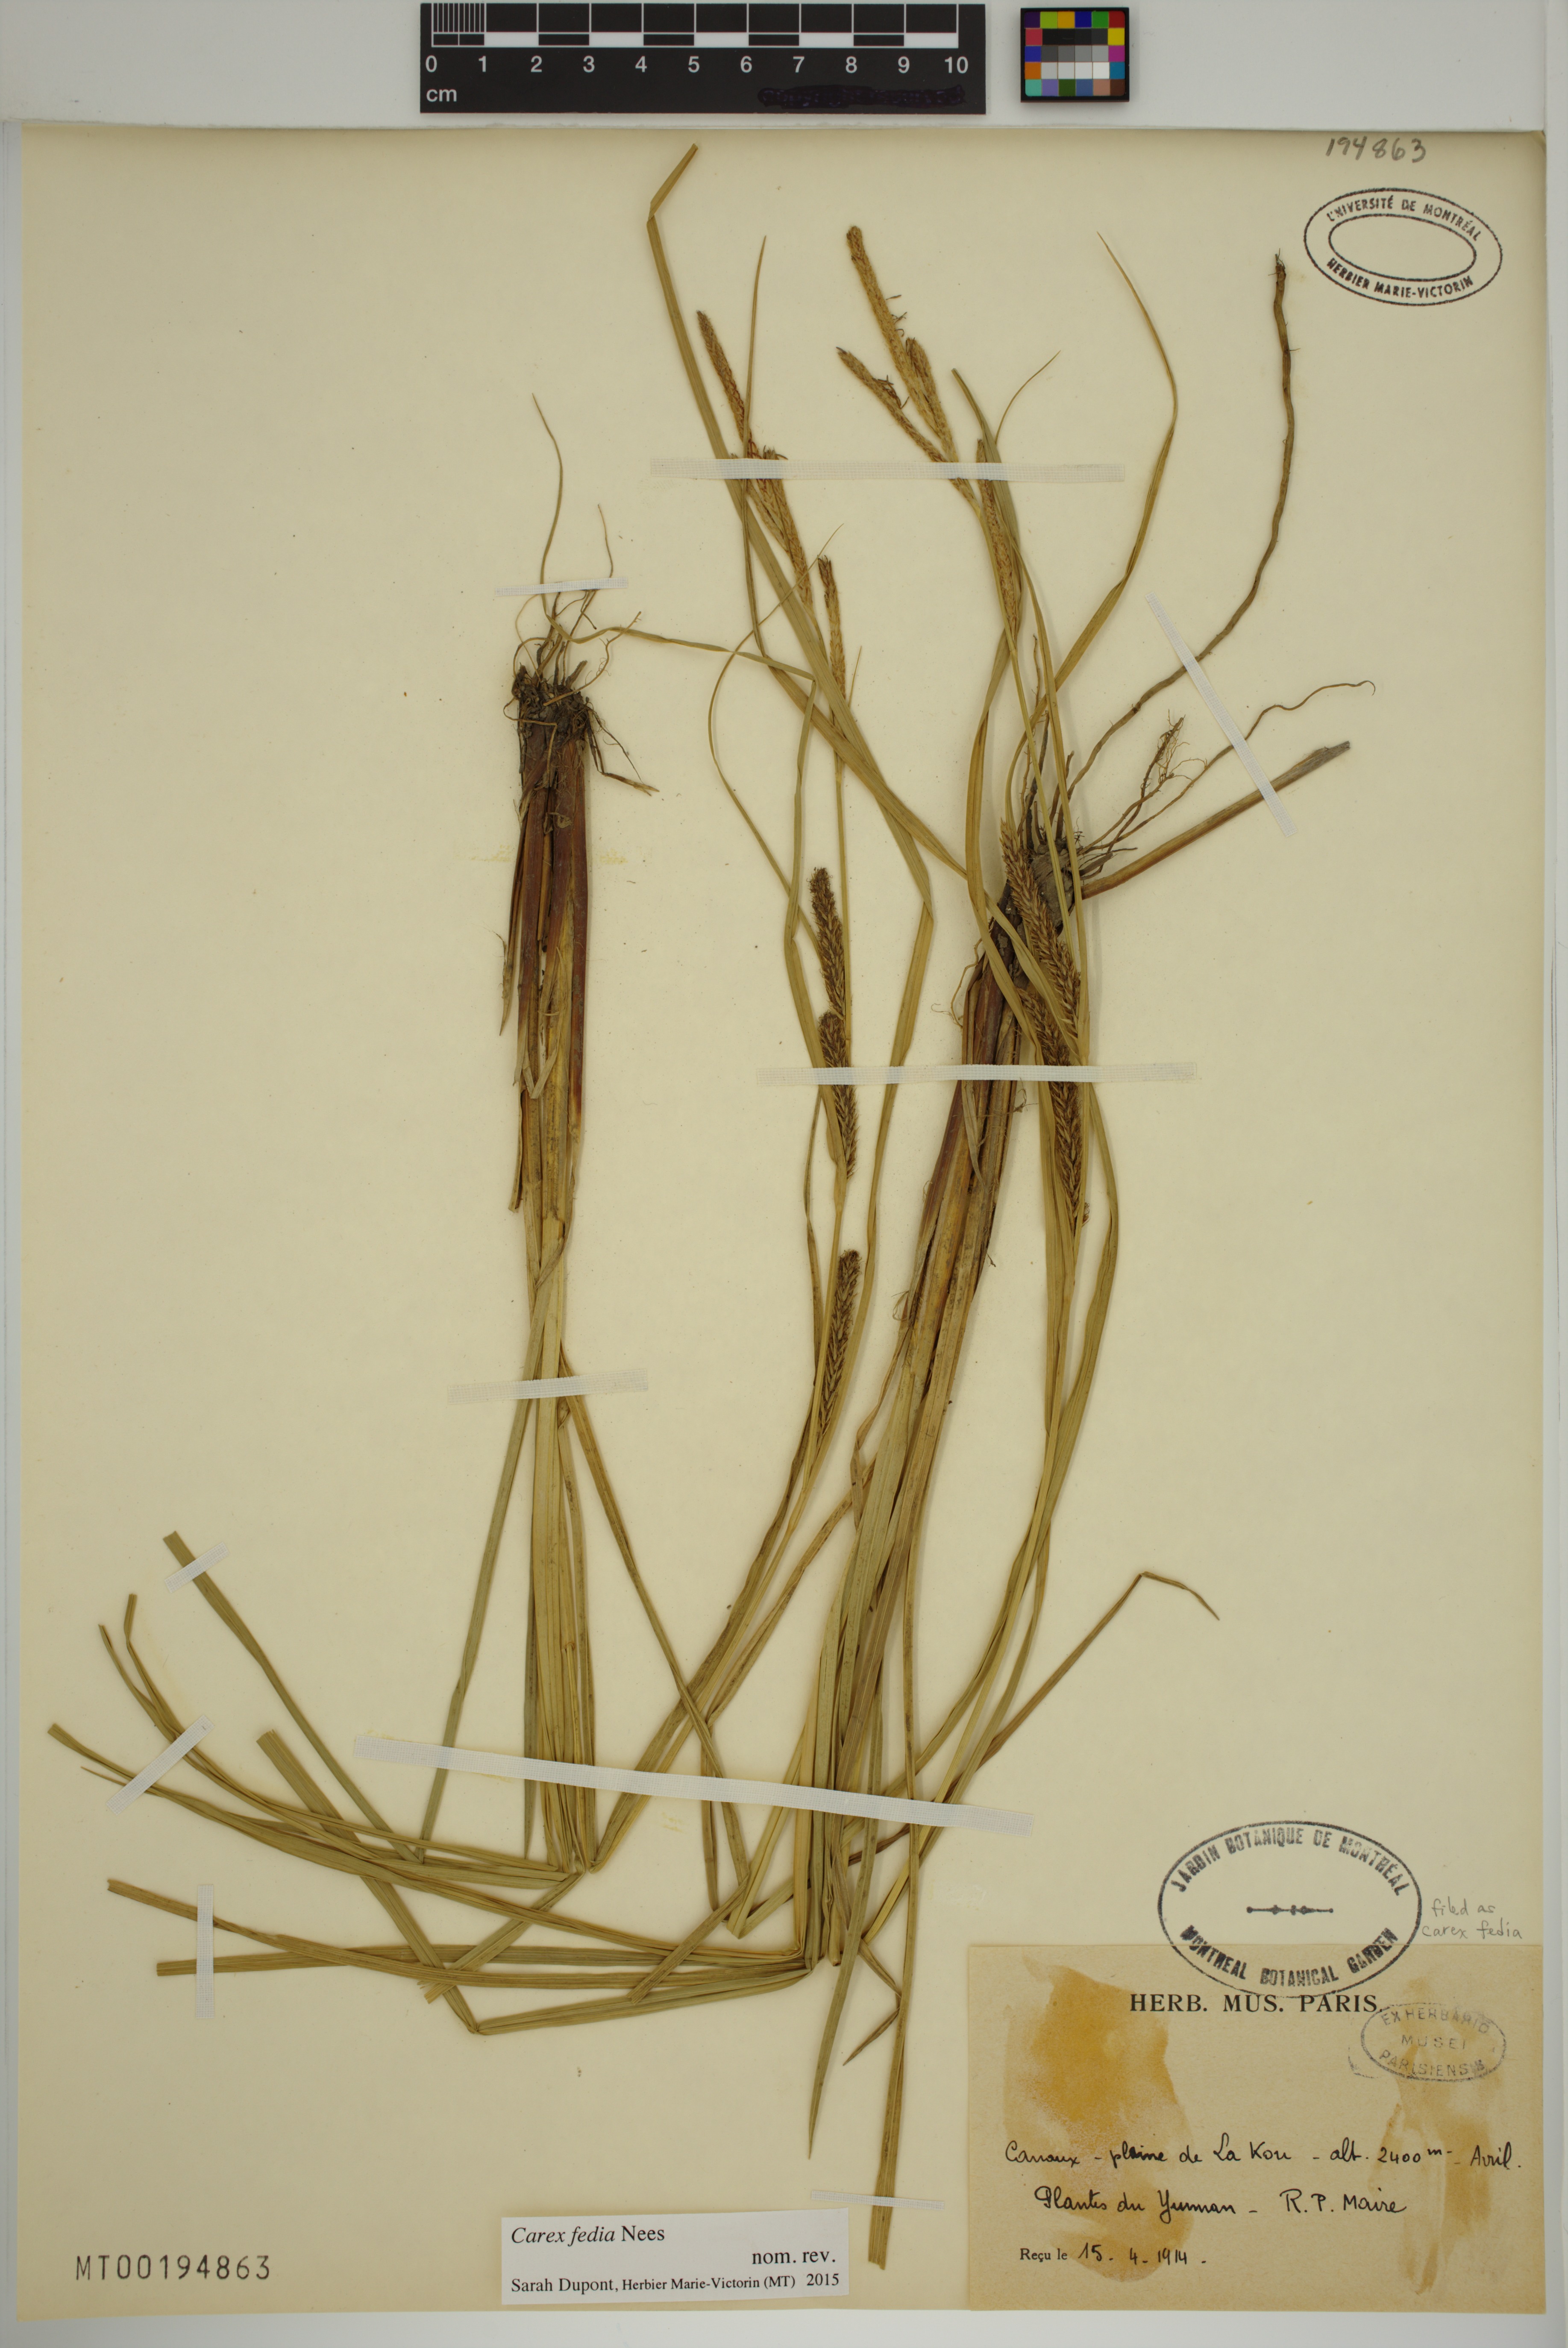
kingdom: Plantae
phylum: Tracheophyta
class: Liliopsida
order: Poales
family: Cyperaceae
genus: Carex
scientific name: Carex fedia
